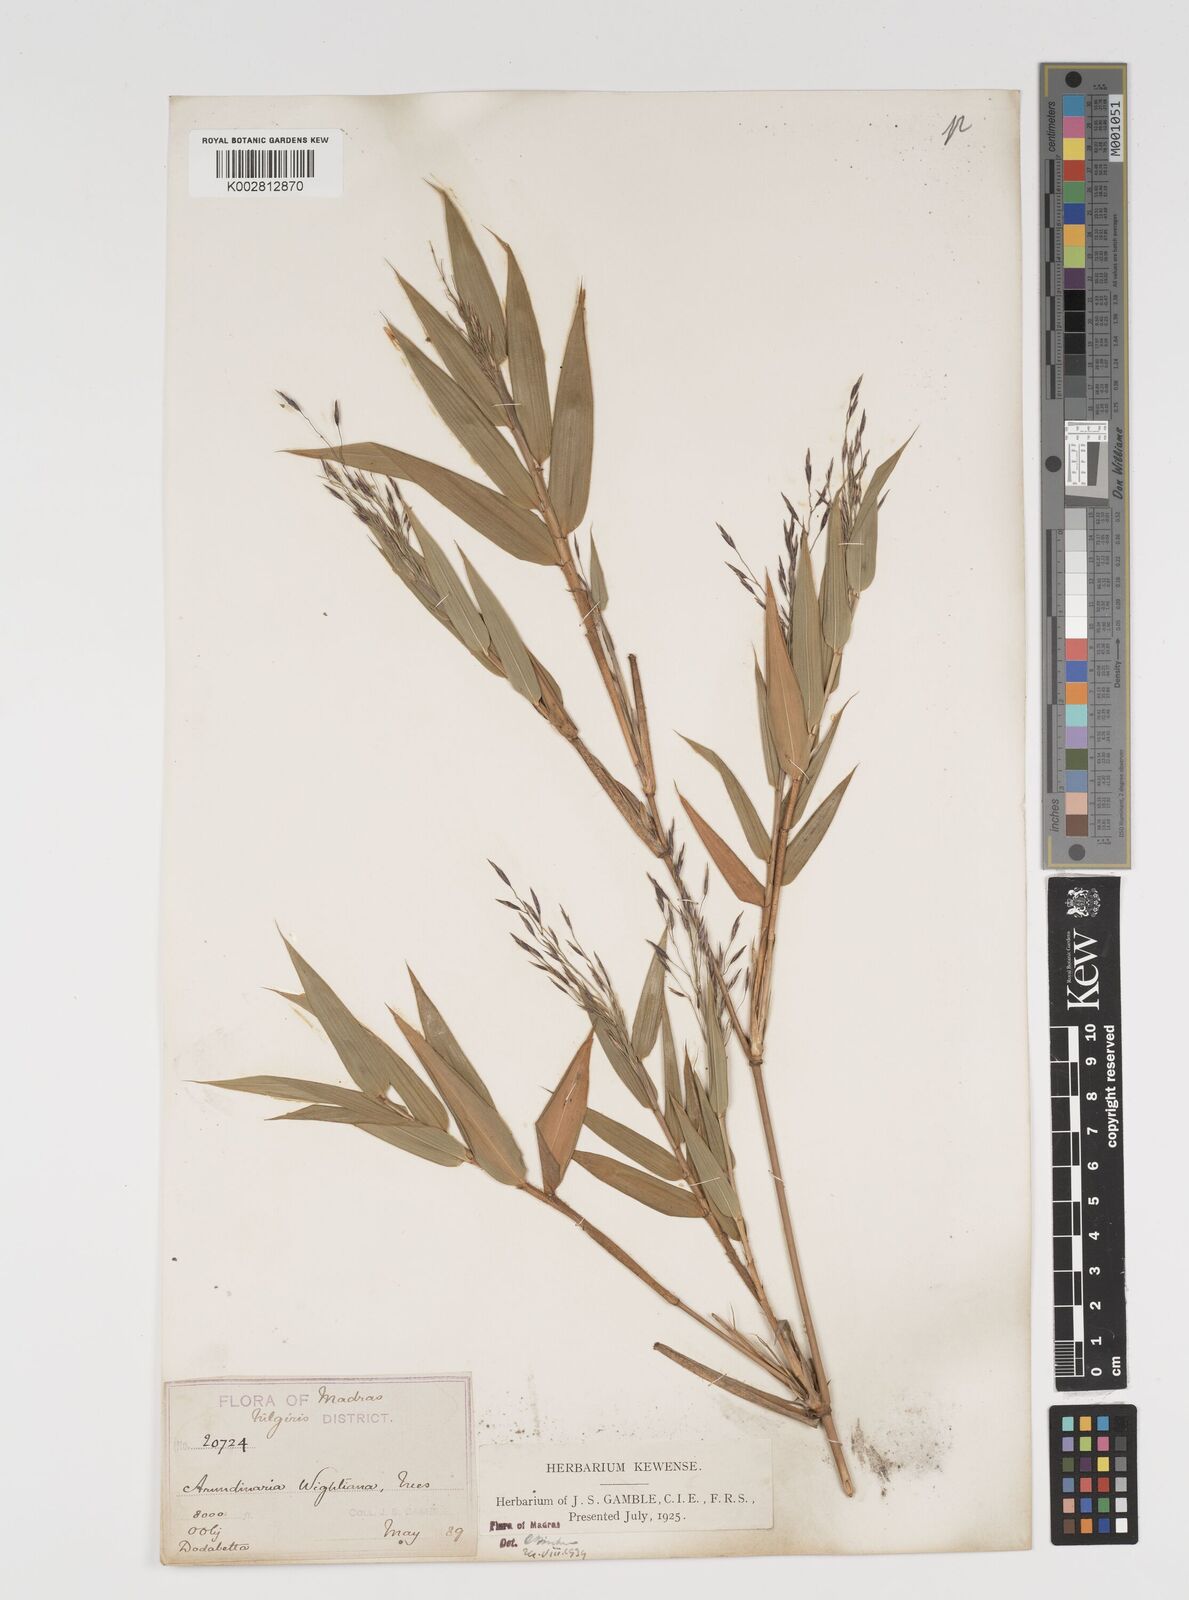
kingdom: Plantae
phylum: Tracheophyta
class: Liliopsida
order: Poales
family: Poaceae
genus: Kuruna
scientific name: Kuruna wightiana
